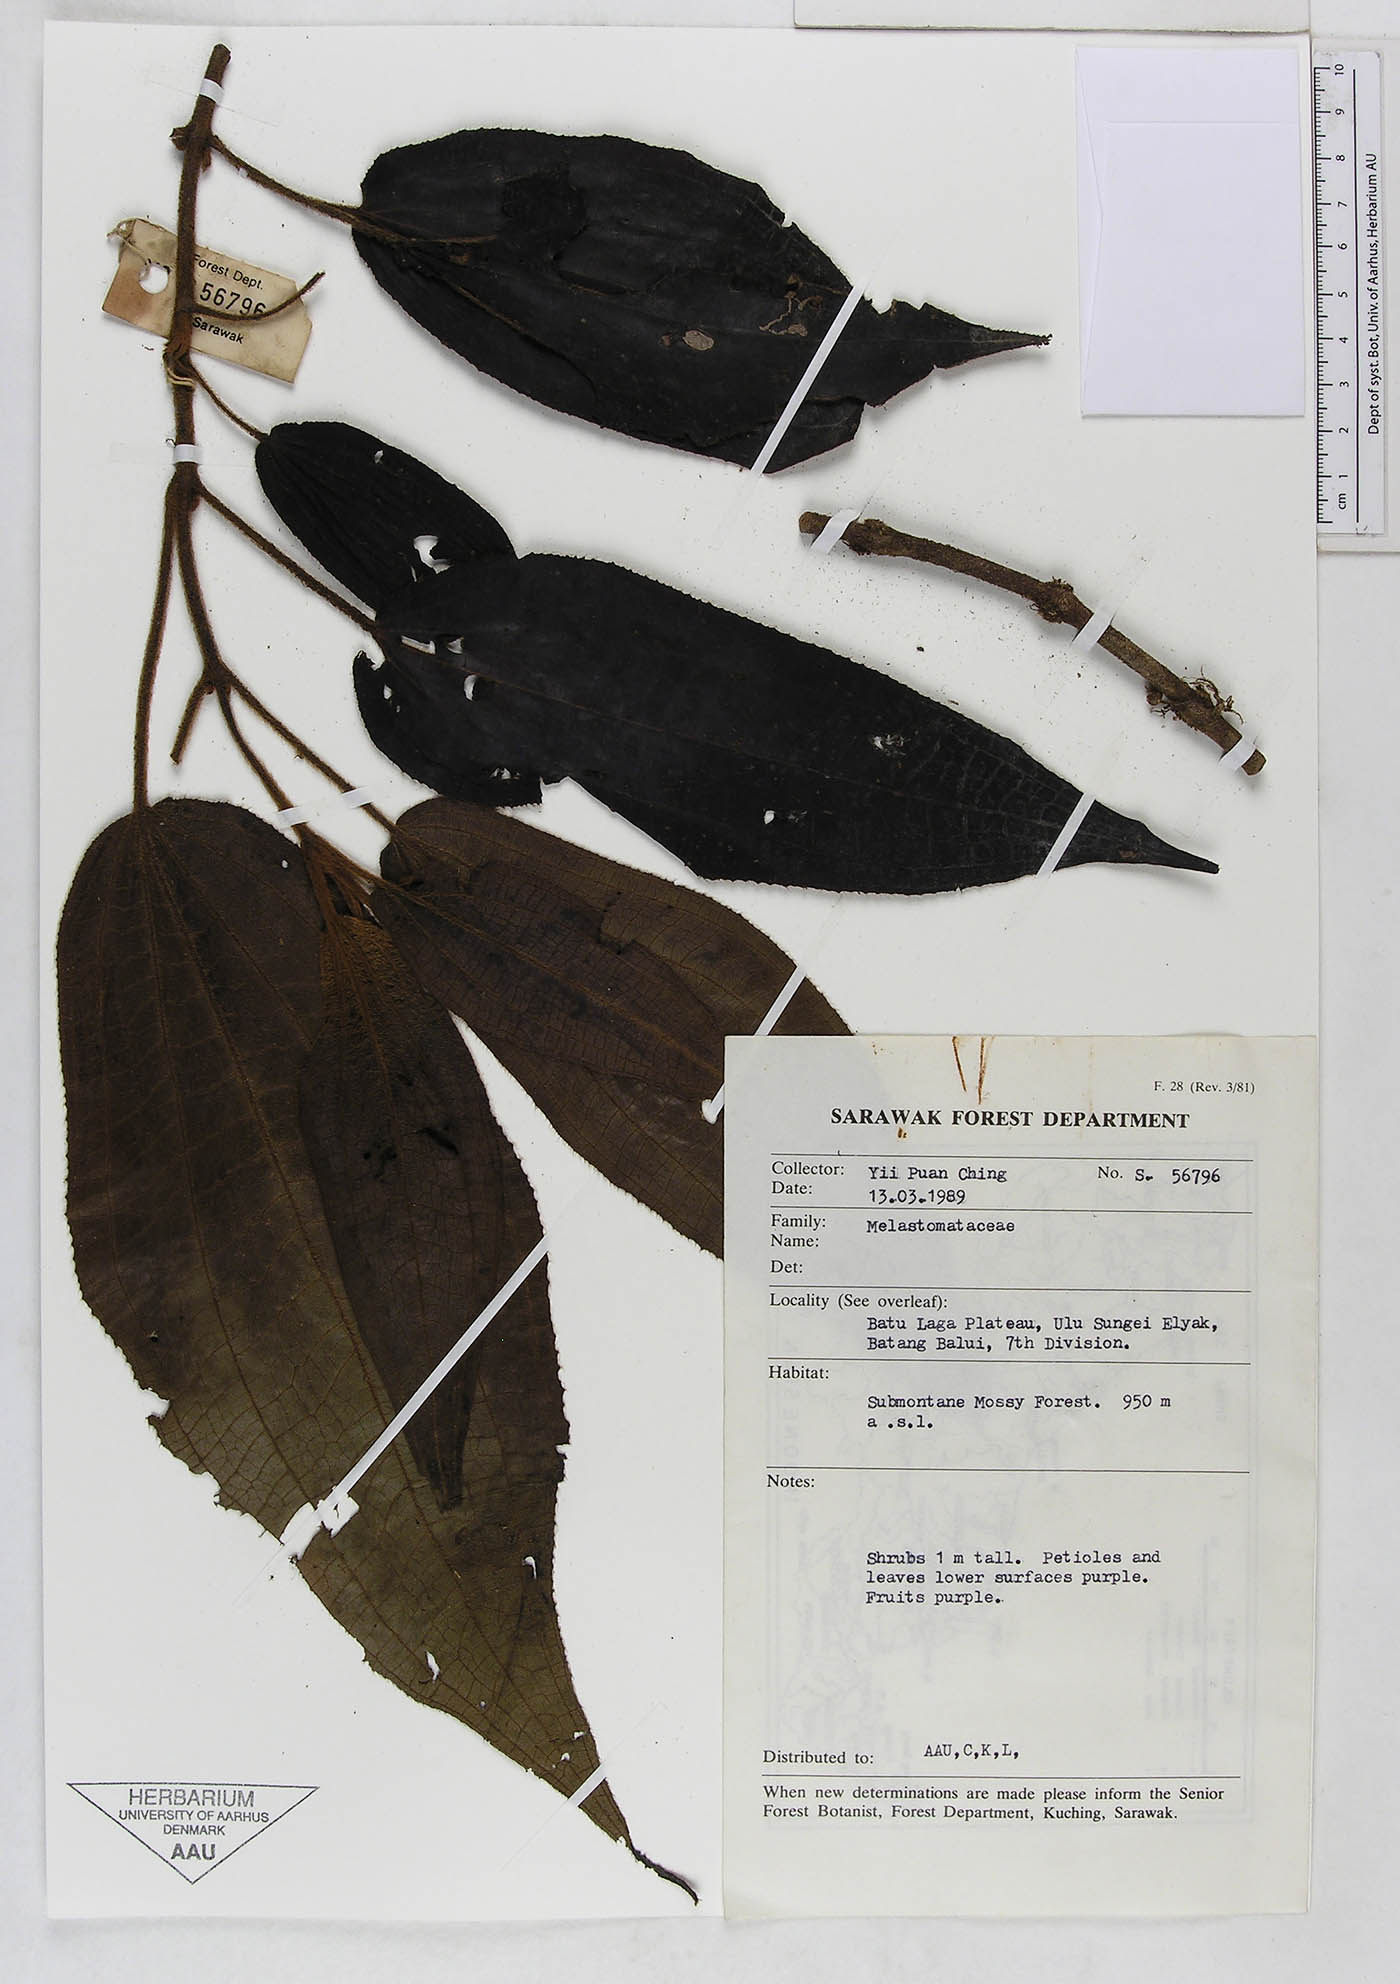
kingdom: Plantae
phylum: Tracheophyta
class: Magnoliopsida
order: Myrtales
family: Melastomataceae
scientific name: Melastomataceae
